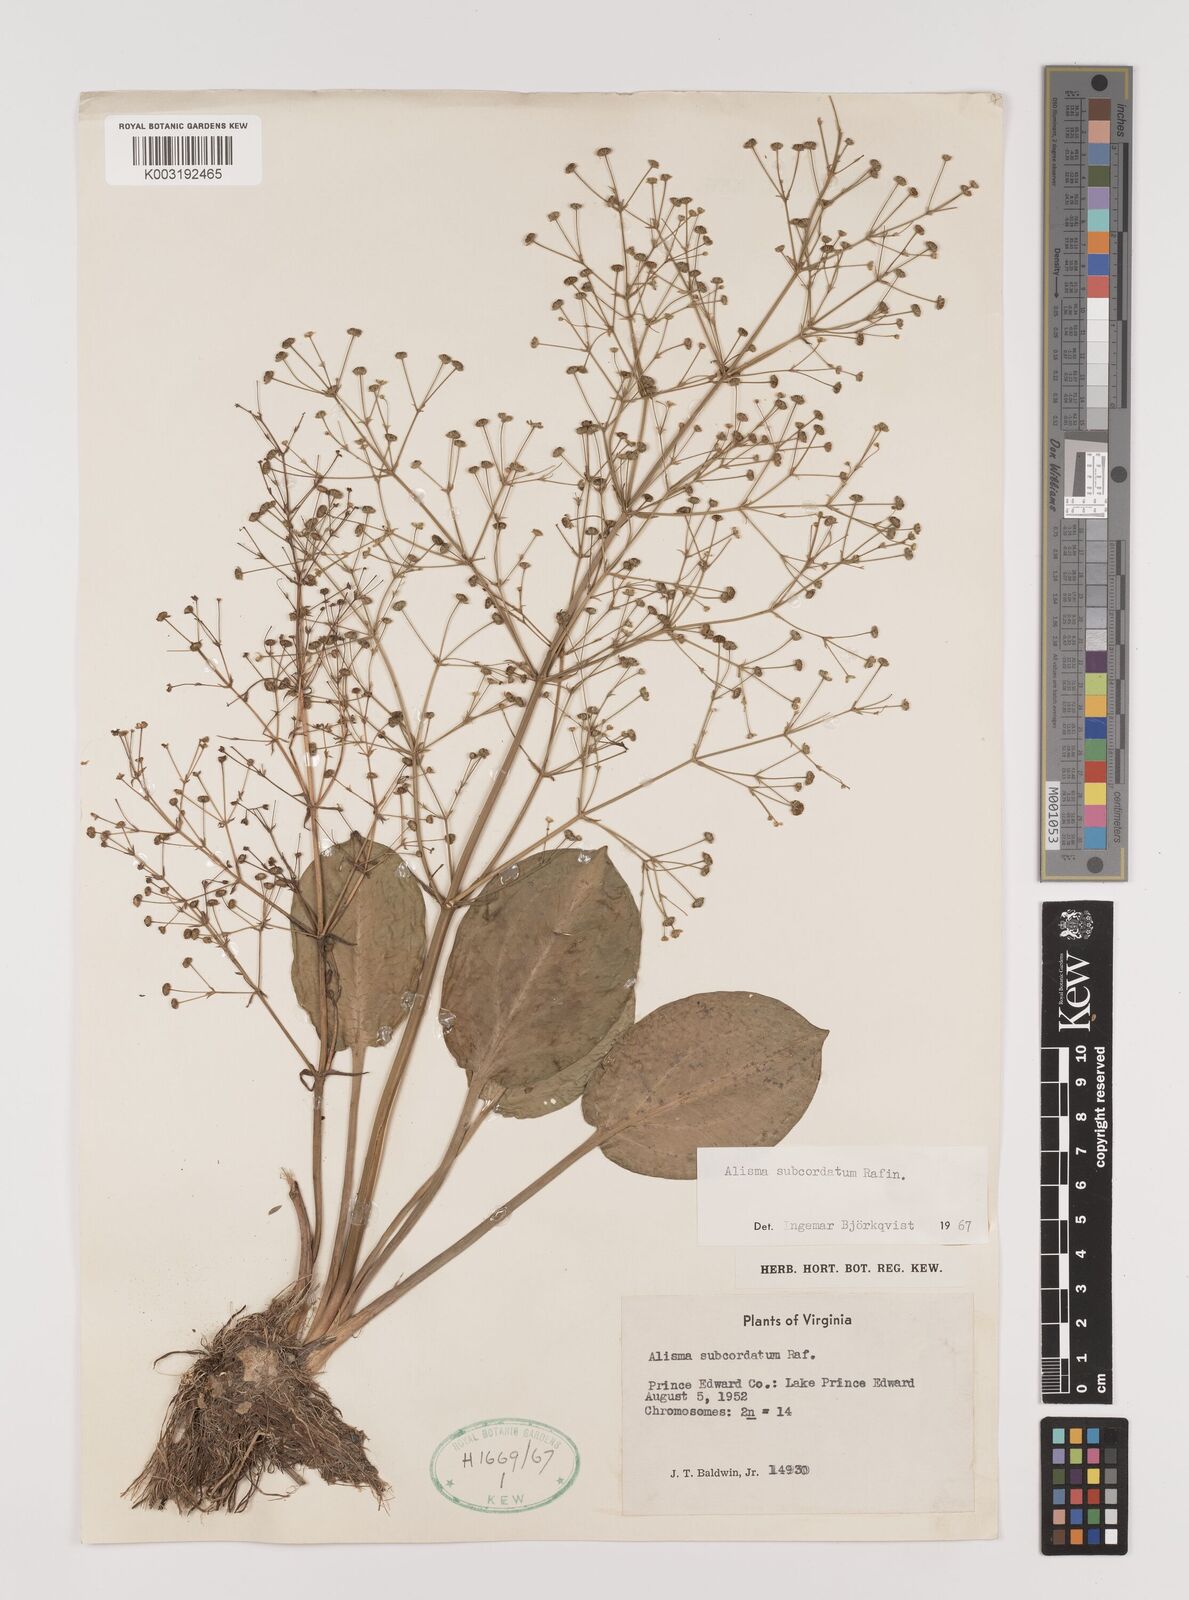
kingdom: Plantae
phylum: Tracheophyta
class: Liliopsida
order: Alismatales
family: Alismataceae
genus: Alisma
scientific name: Alisma subcordatum
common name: Southern water-plantain
